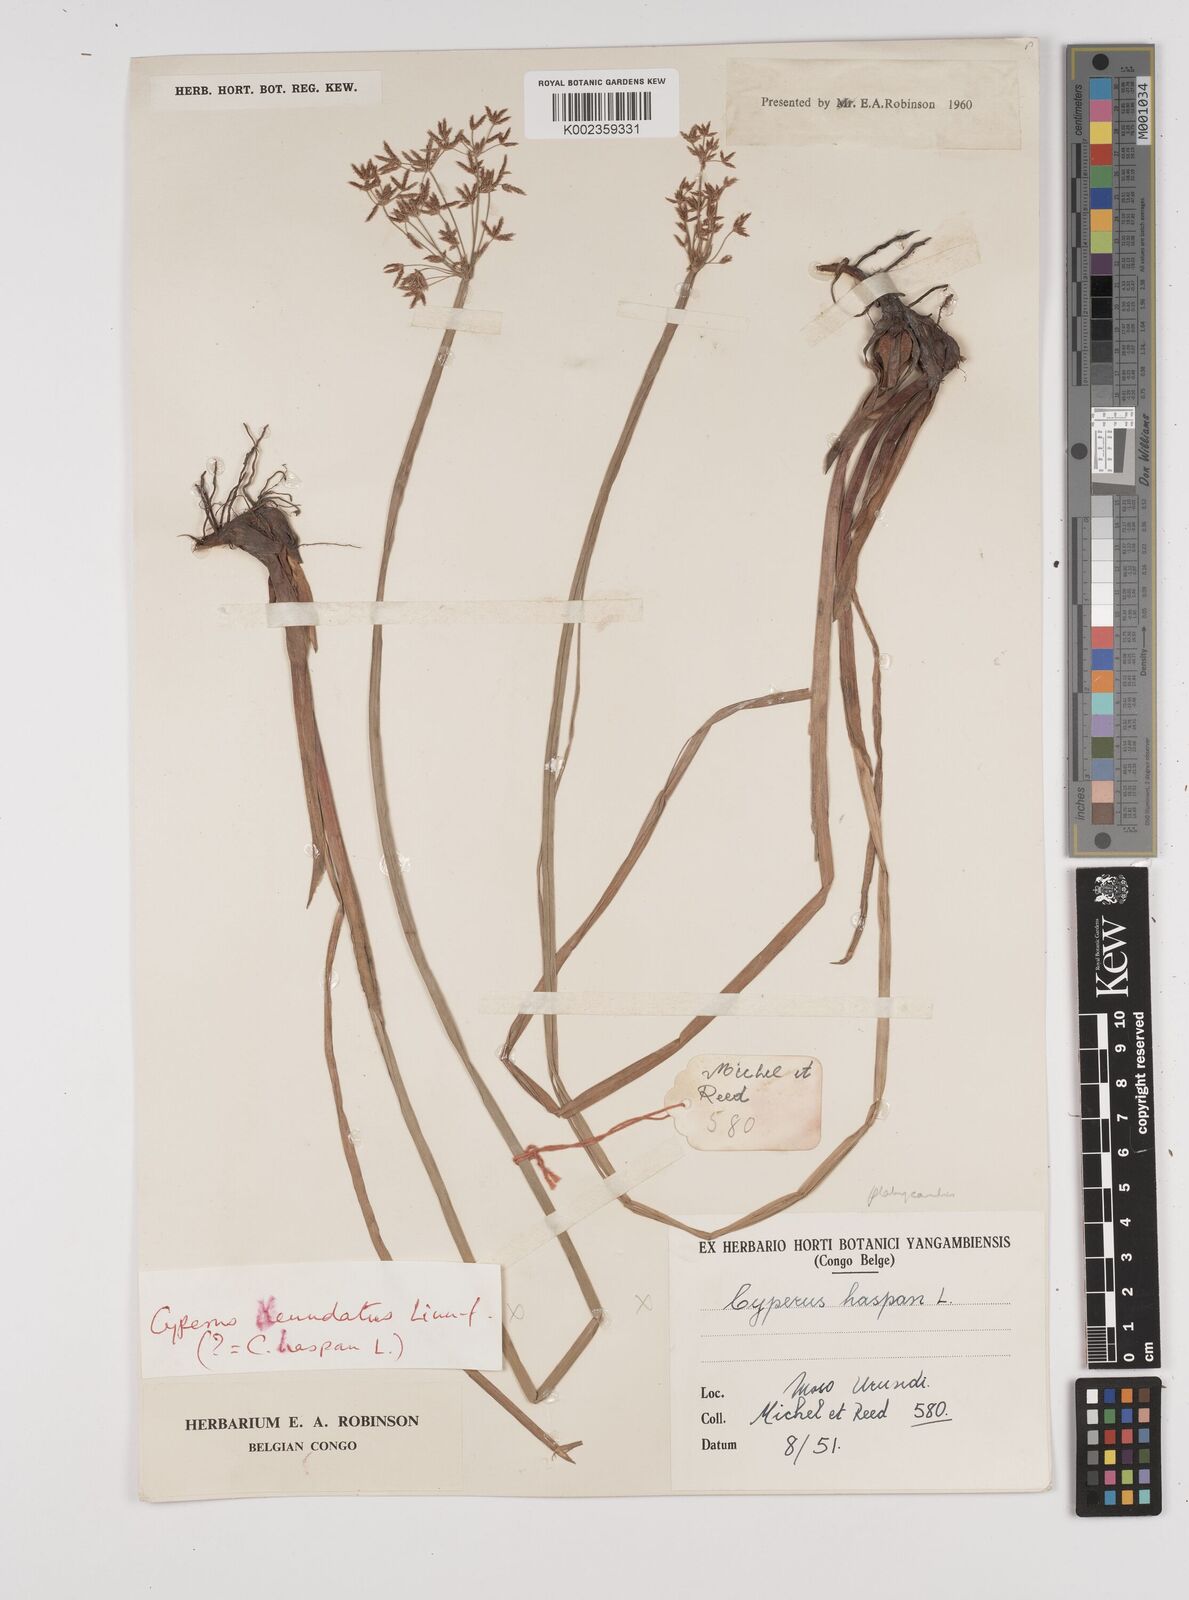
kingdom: Plantae
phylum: Tracheophyta
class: Liliopsida
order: Poales
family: Cyperaceae
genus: Cyperus
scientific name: Cyperus platycaulis
